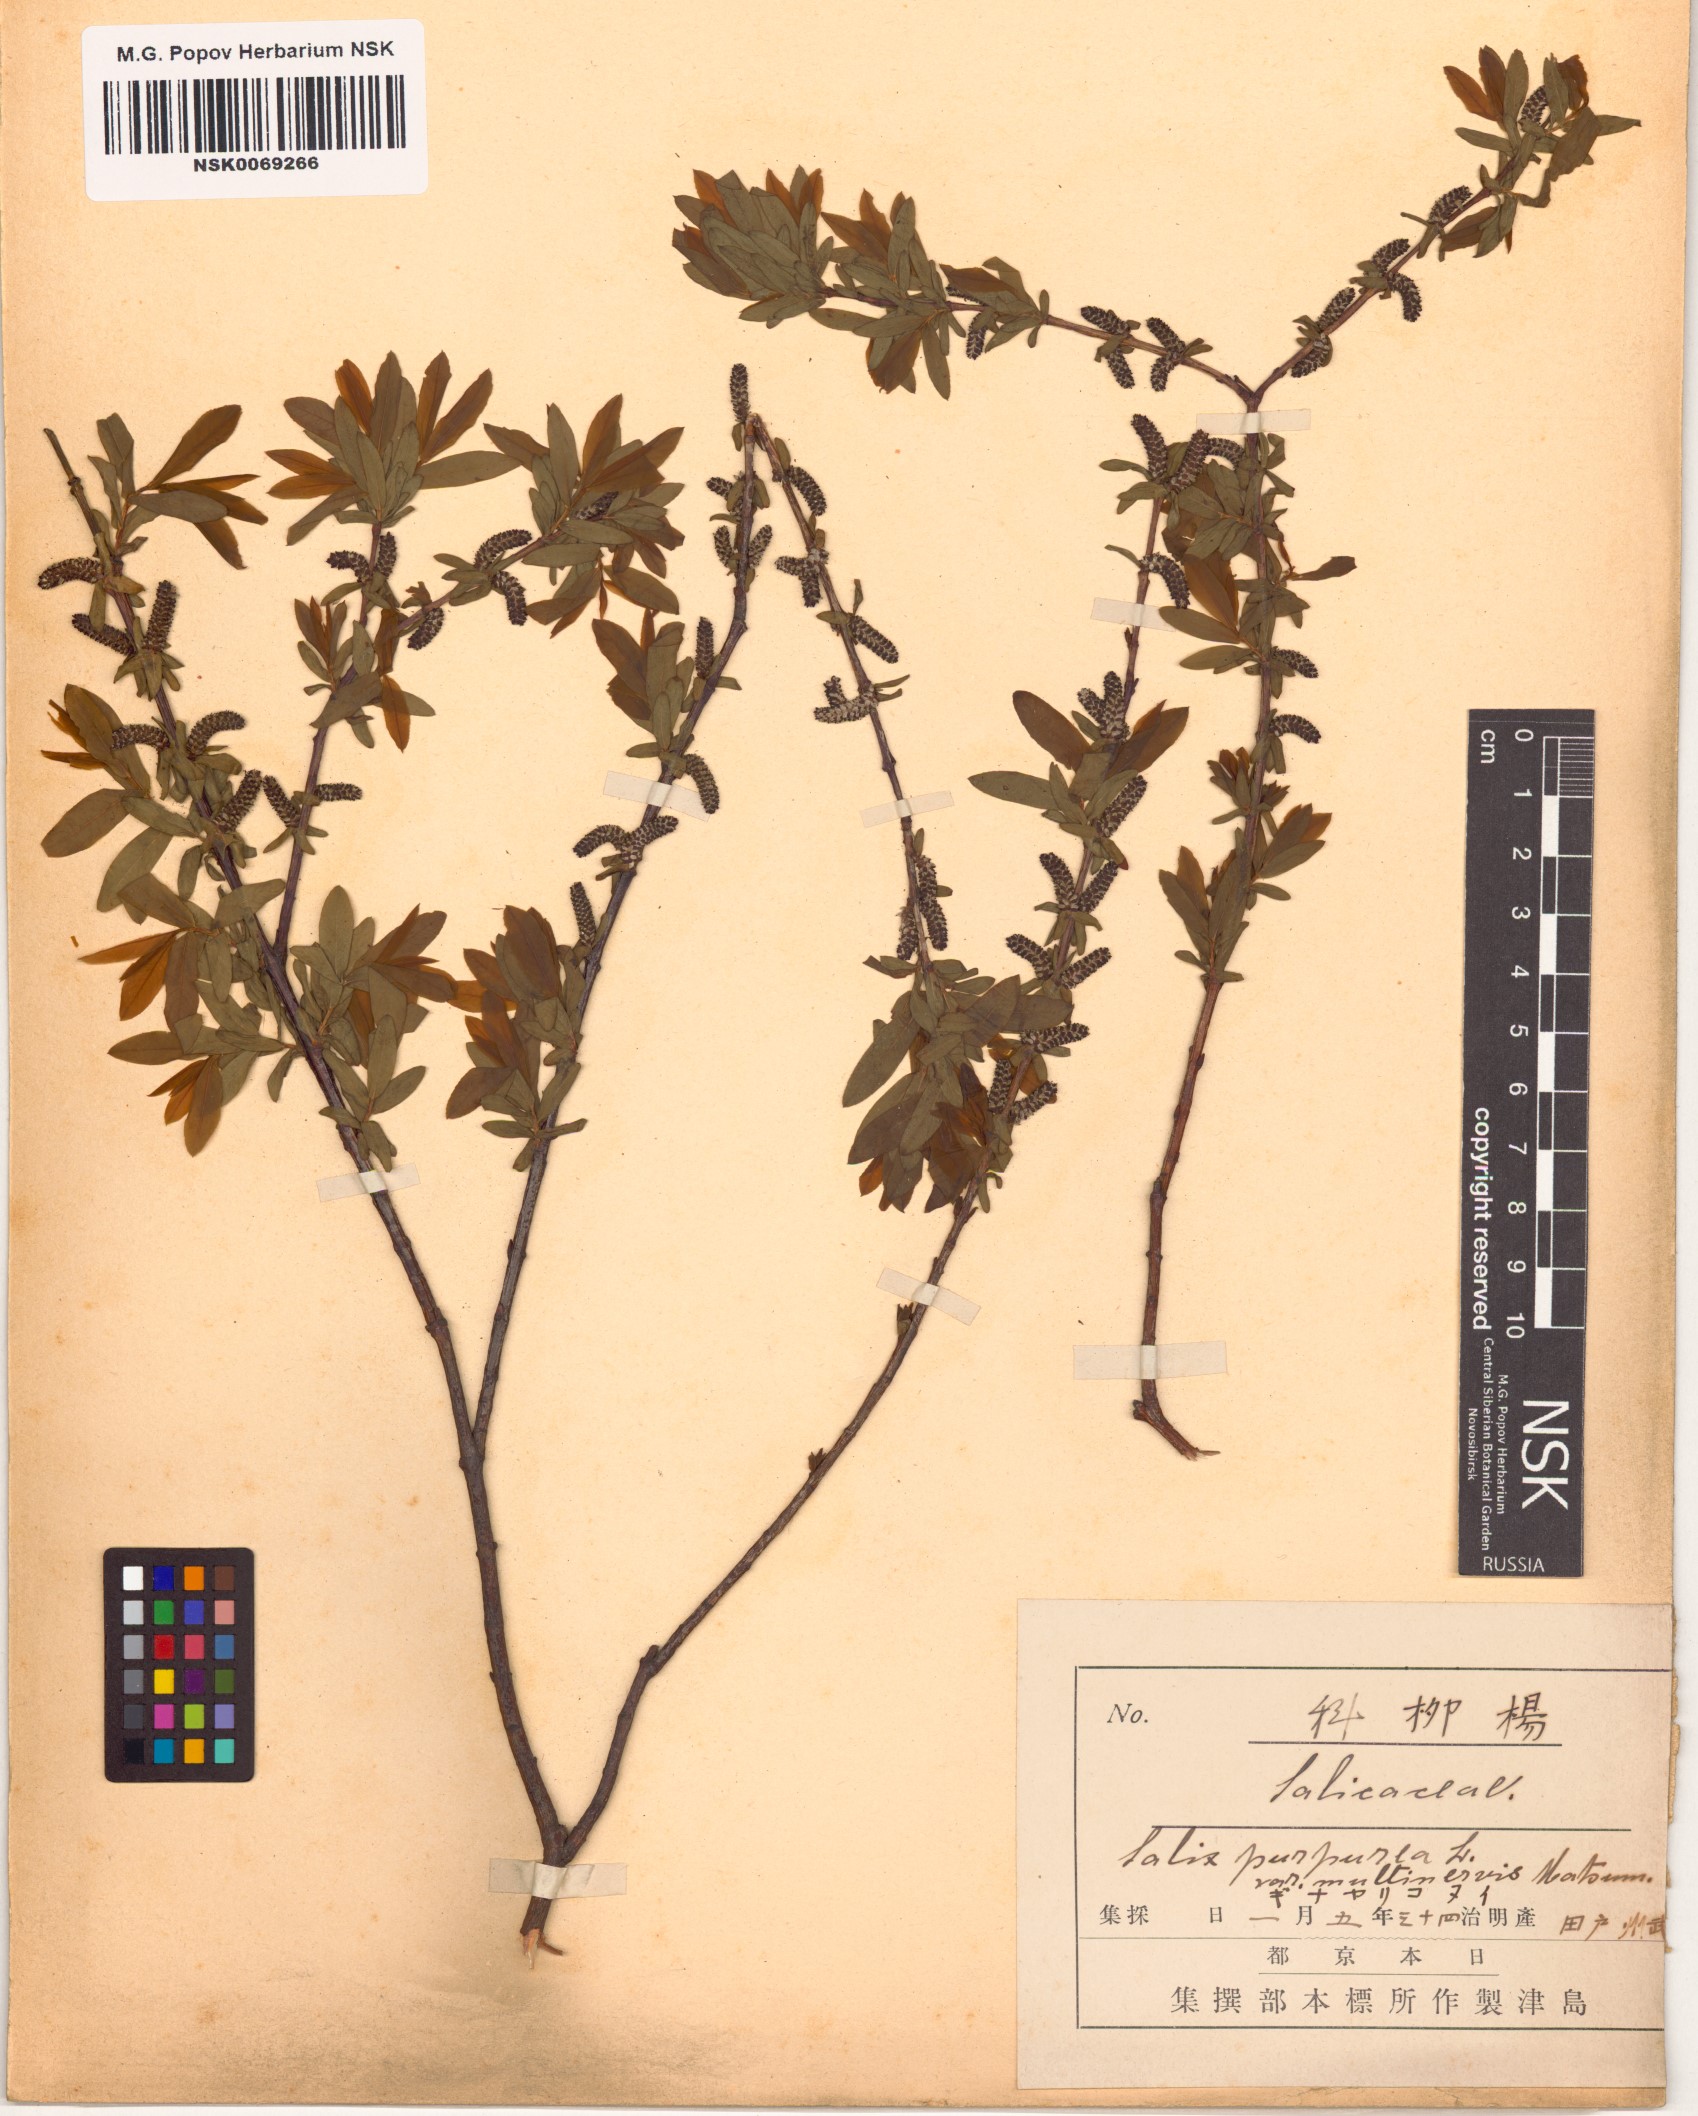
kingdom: Plantae
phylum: Tracheophyta
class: Magnoliopsida
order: Malpighiales
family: Salicaceae
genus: Salix
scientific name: Salix integra
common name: Dappled willow
